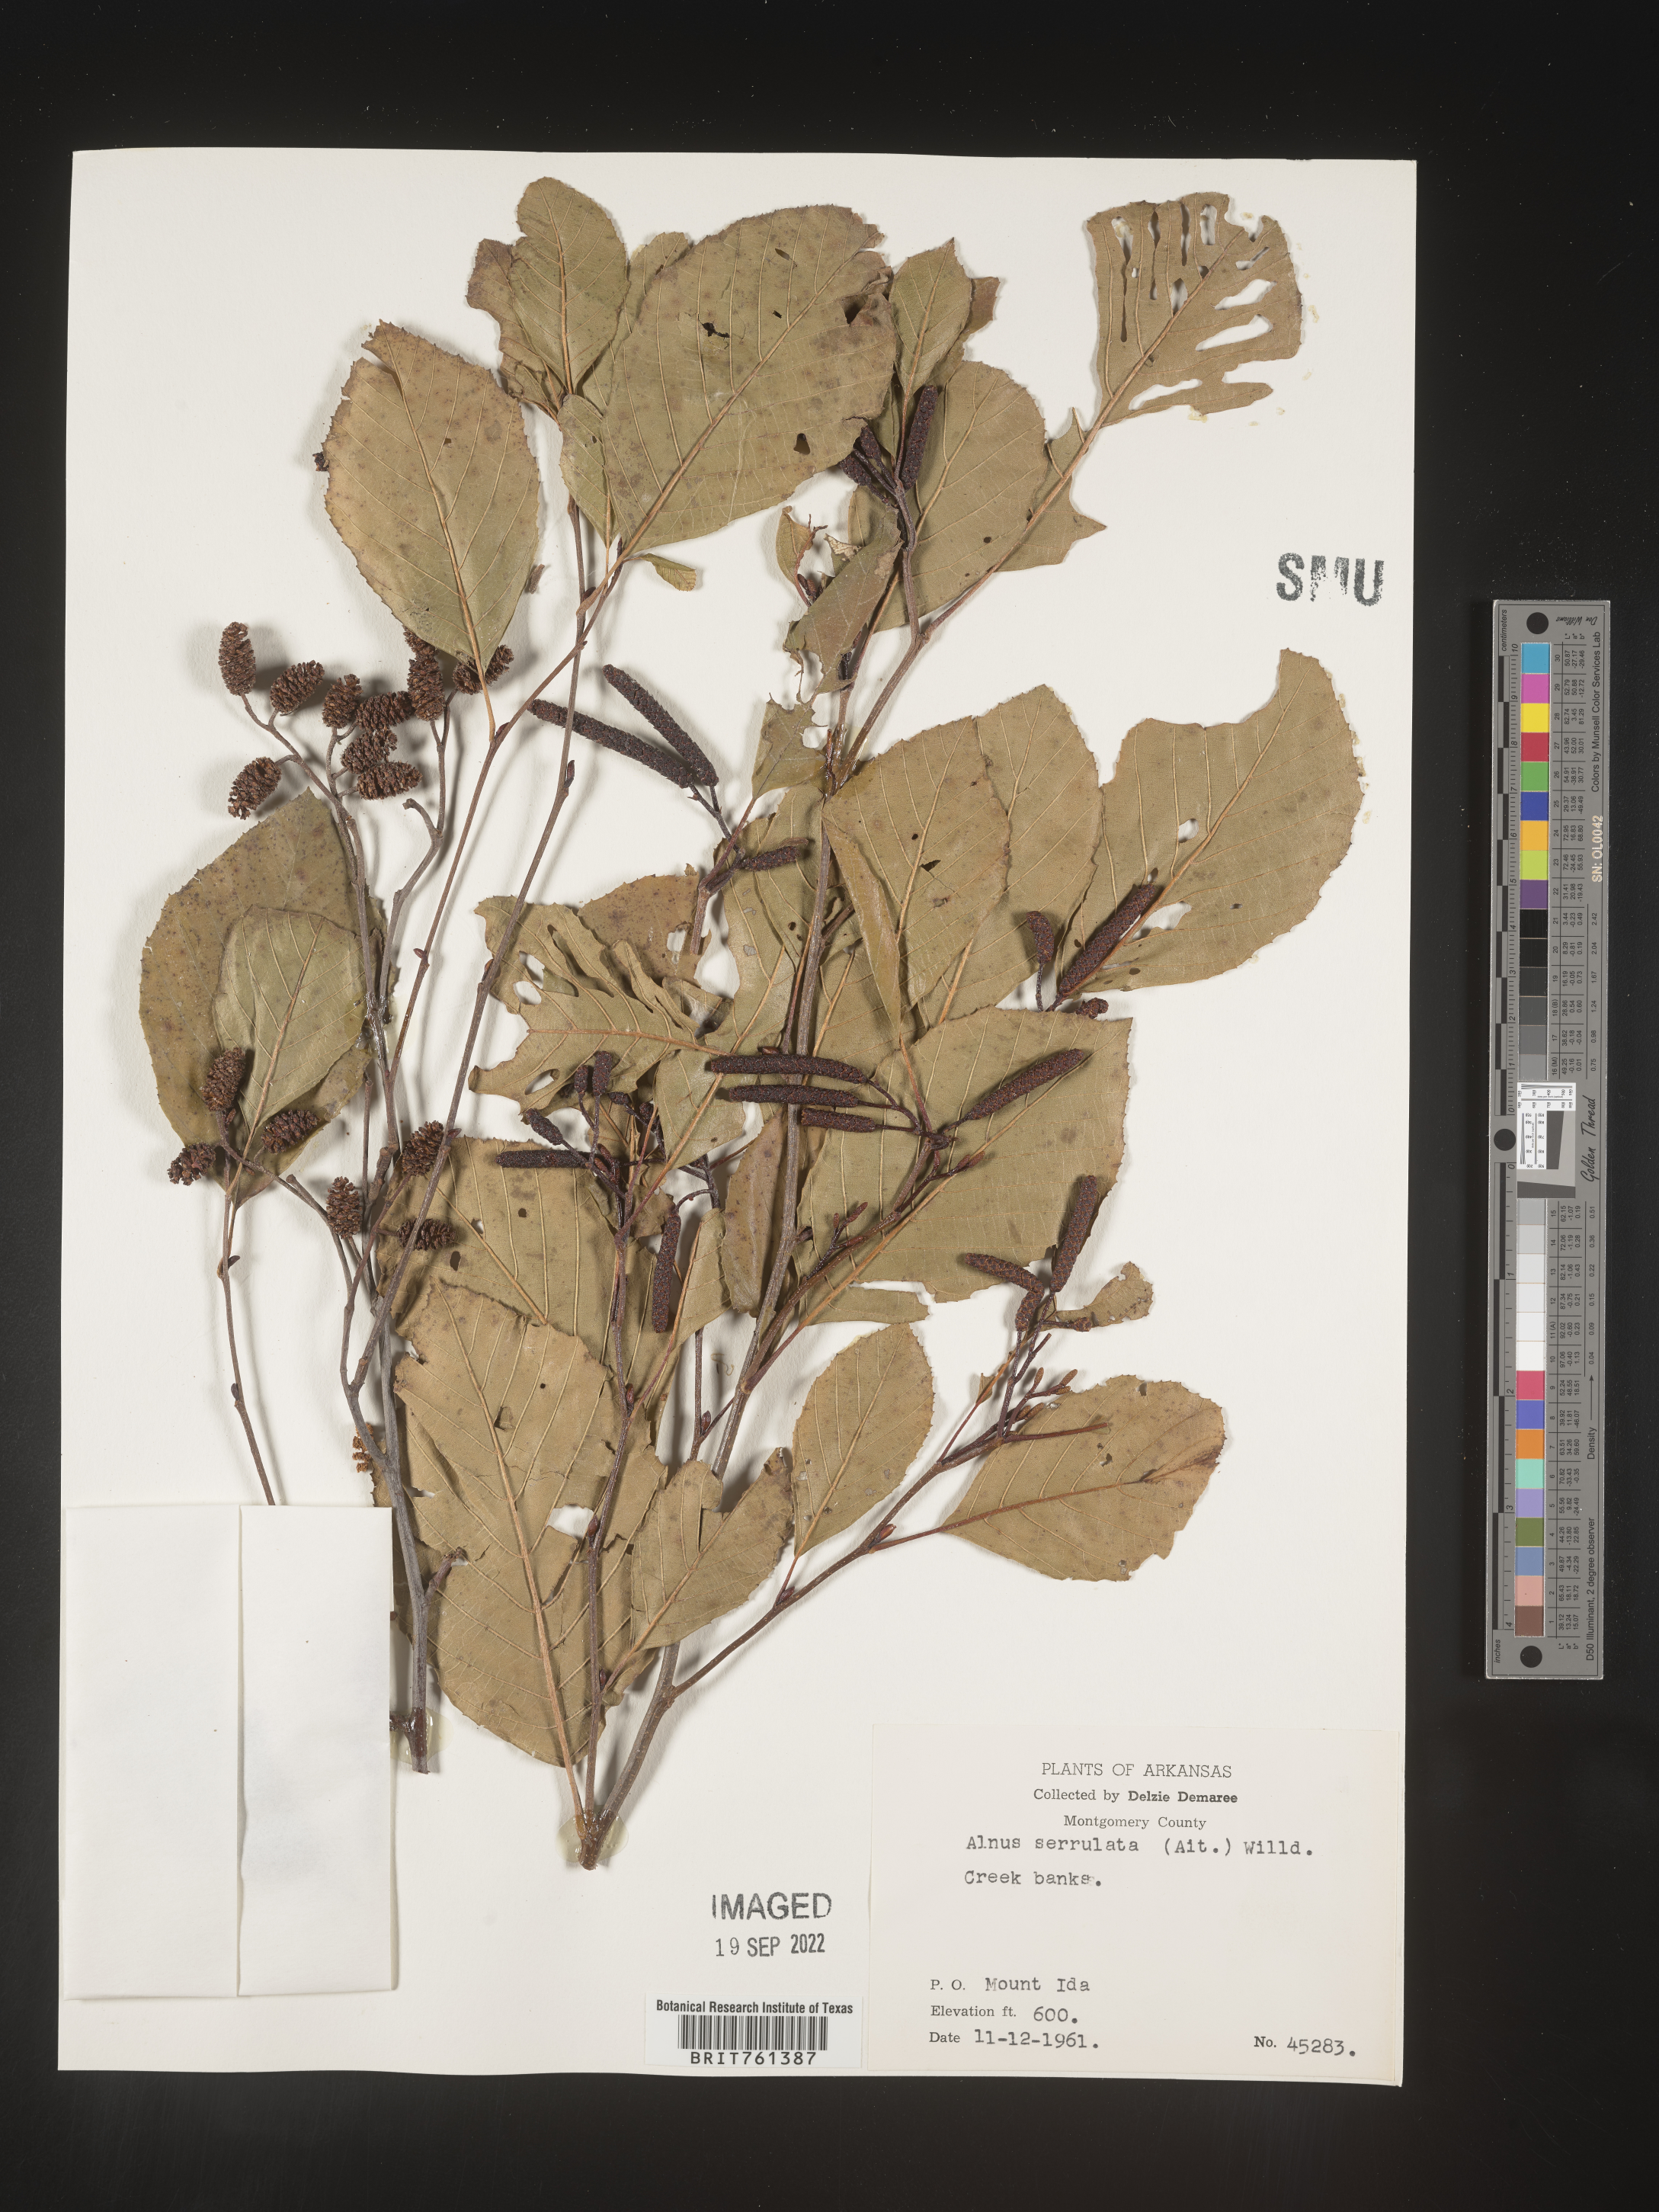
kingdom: Plantae
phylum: Tracheophyta
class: Magnoliopsida
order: Fagales
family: Betulaceae
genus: Alnus
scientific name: Alnus serrulata
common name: Hazel alder
